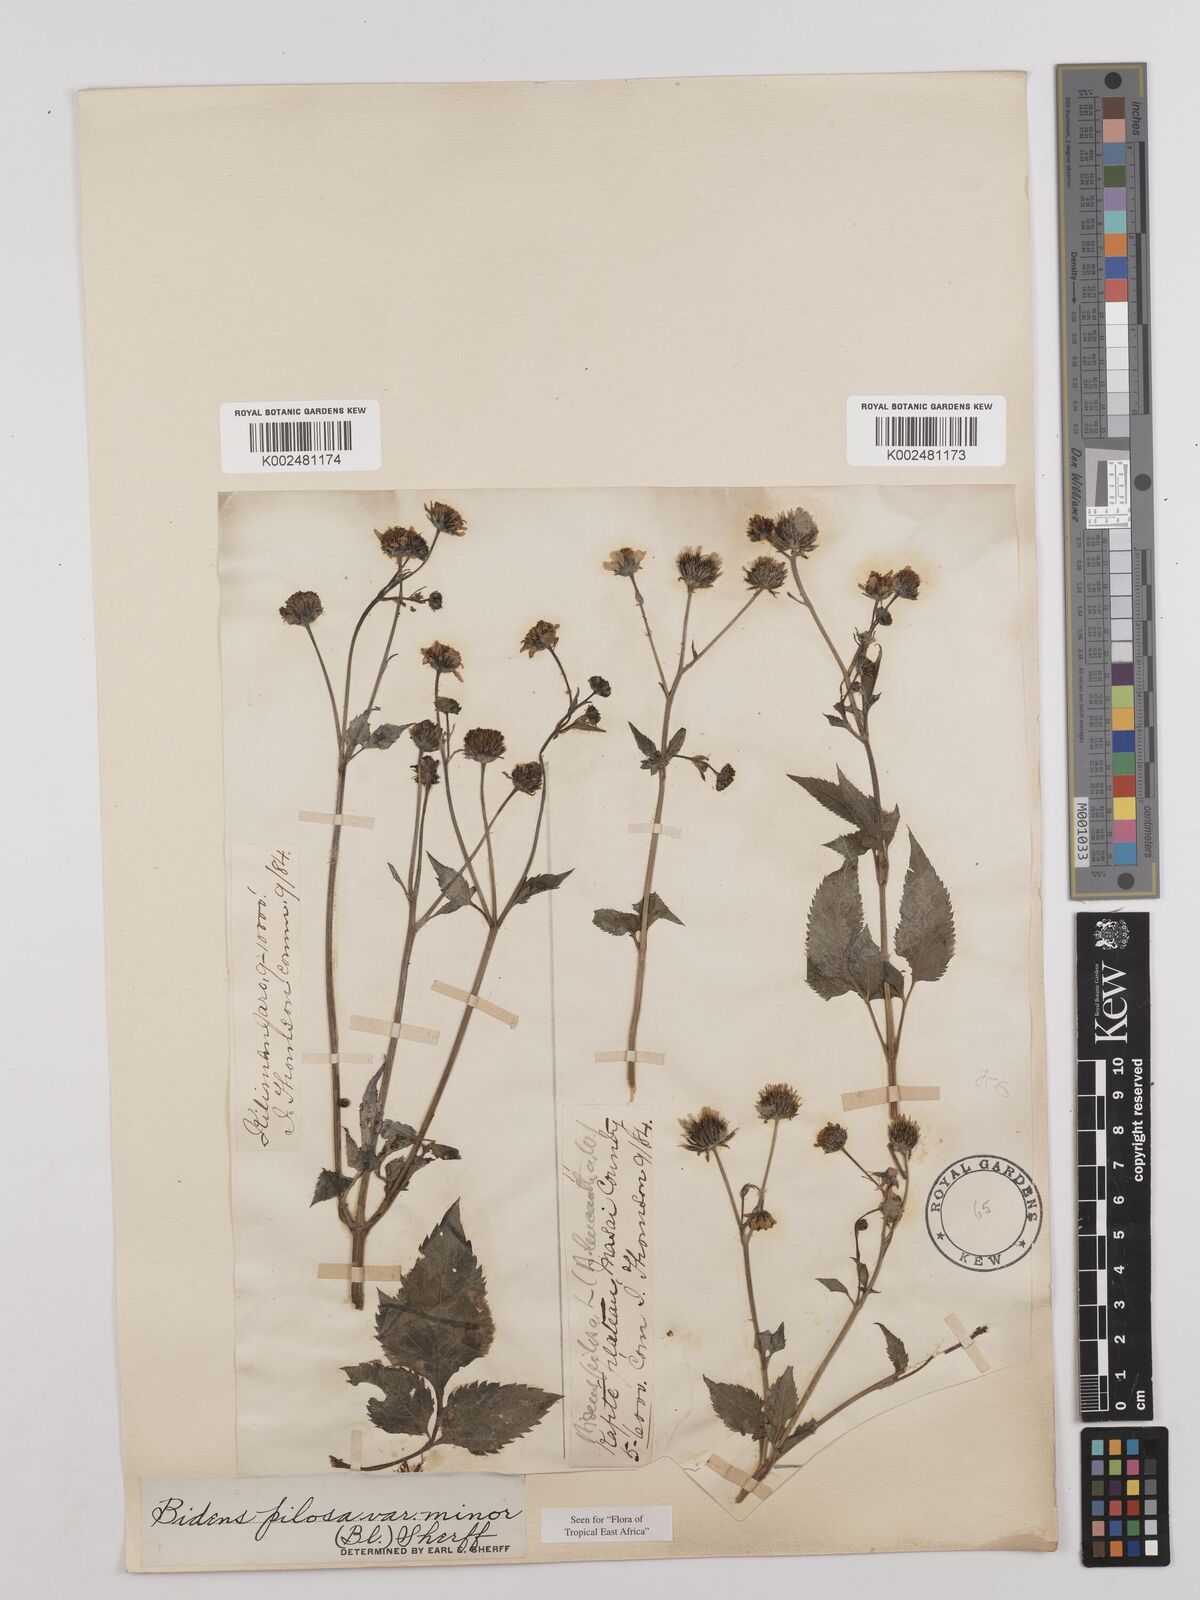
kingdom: Plantae
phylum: Tracheophyta
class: Magnoliopsida
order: Asterales
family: Asteraceae
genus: Bidens
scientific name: Bidens pilosa
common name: Black-jack
